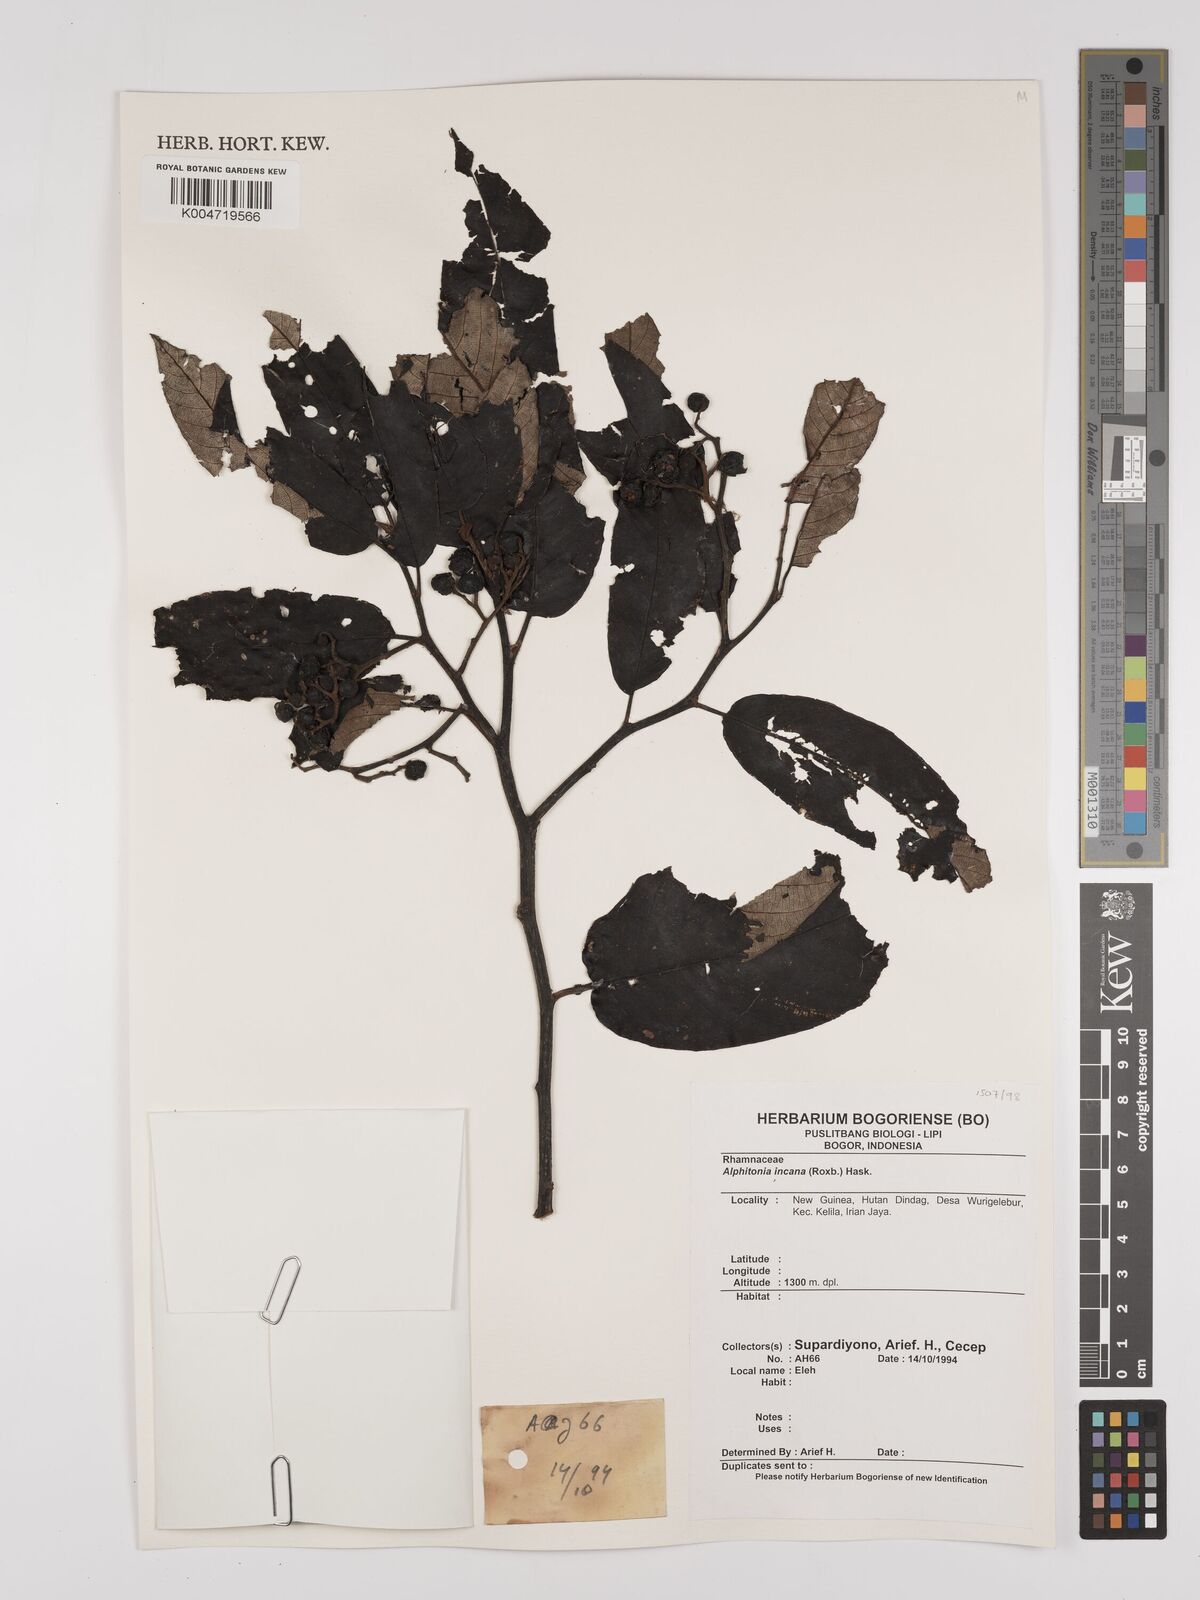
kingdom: Plantae
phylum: Tracheophyta
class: Magnoliopsida
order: Rosales
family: Rhamnaceae
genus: Alphitonia
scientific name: Alphitonia incana
